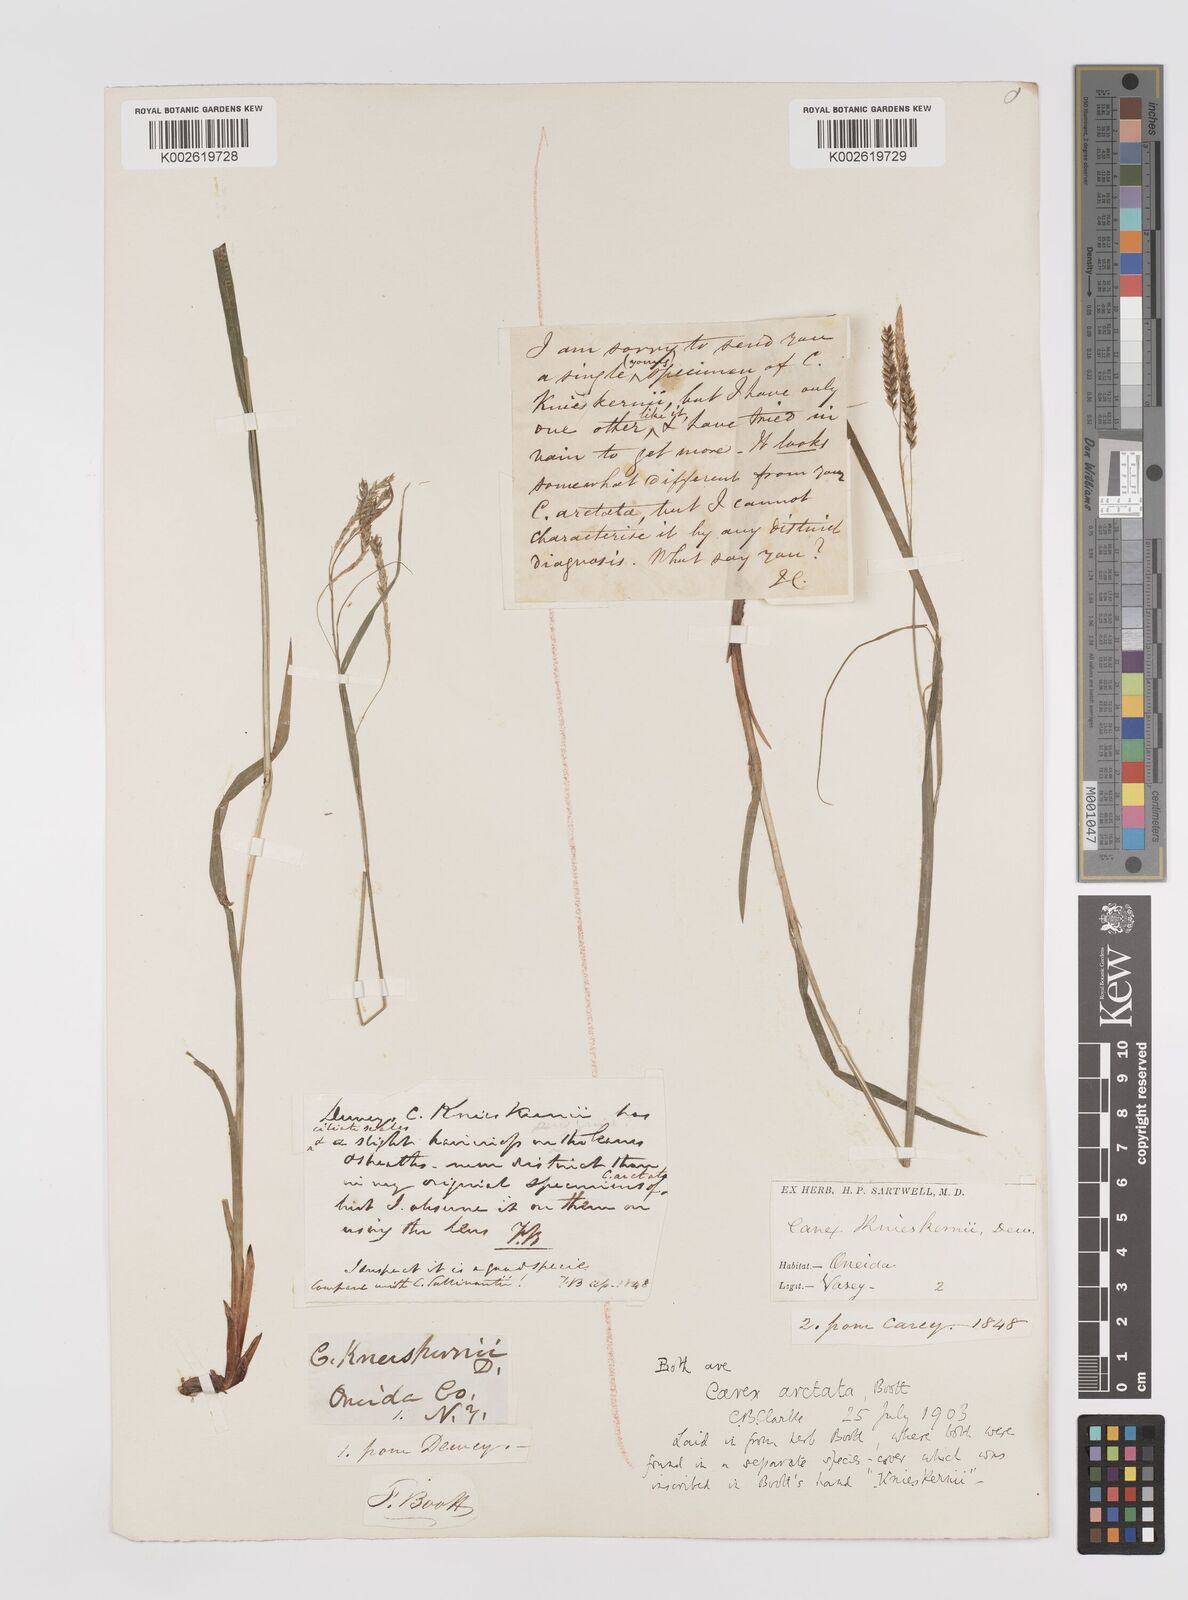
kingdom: Plantae
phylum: Tracheophyta
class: Liliopsida
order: Poales
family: Cyperaceae
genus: Carex
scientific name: Carex knieskernii
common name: Knieskern's sedge
